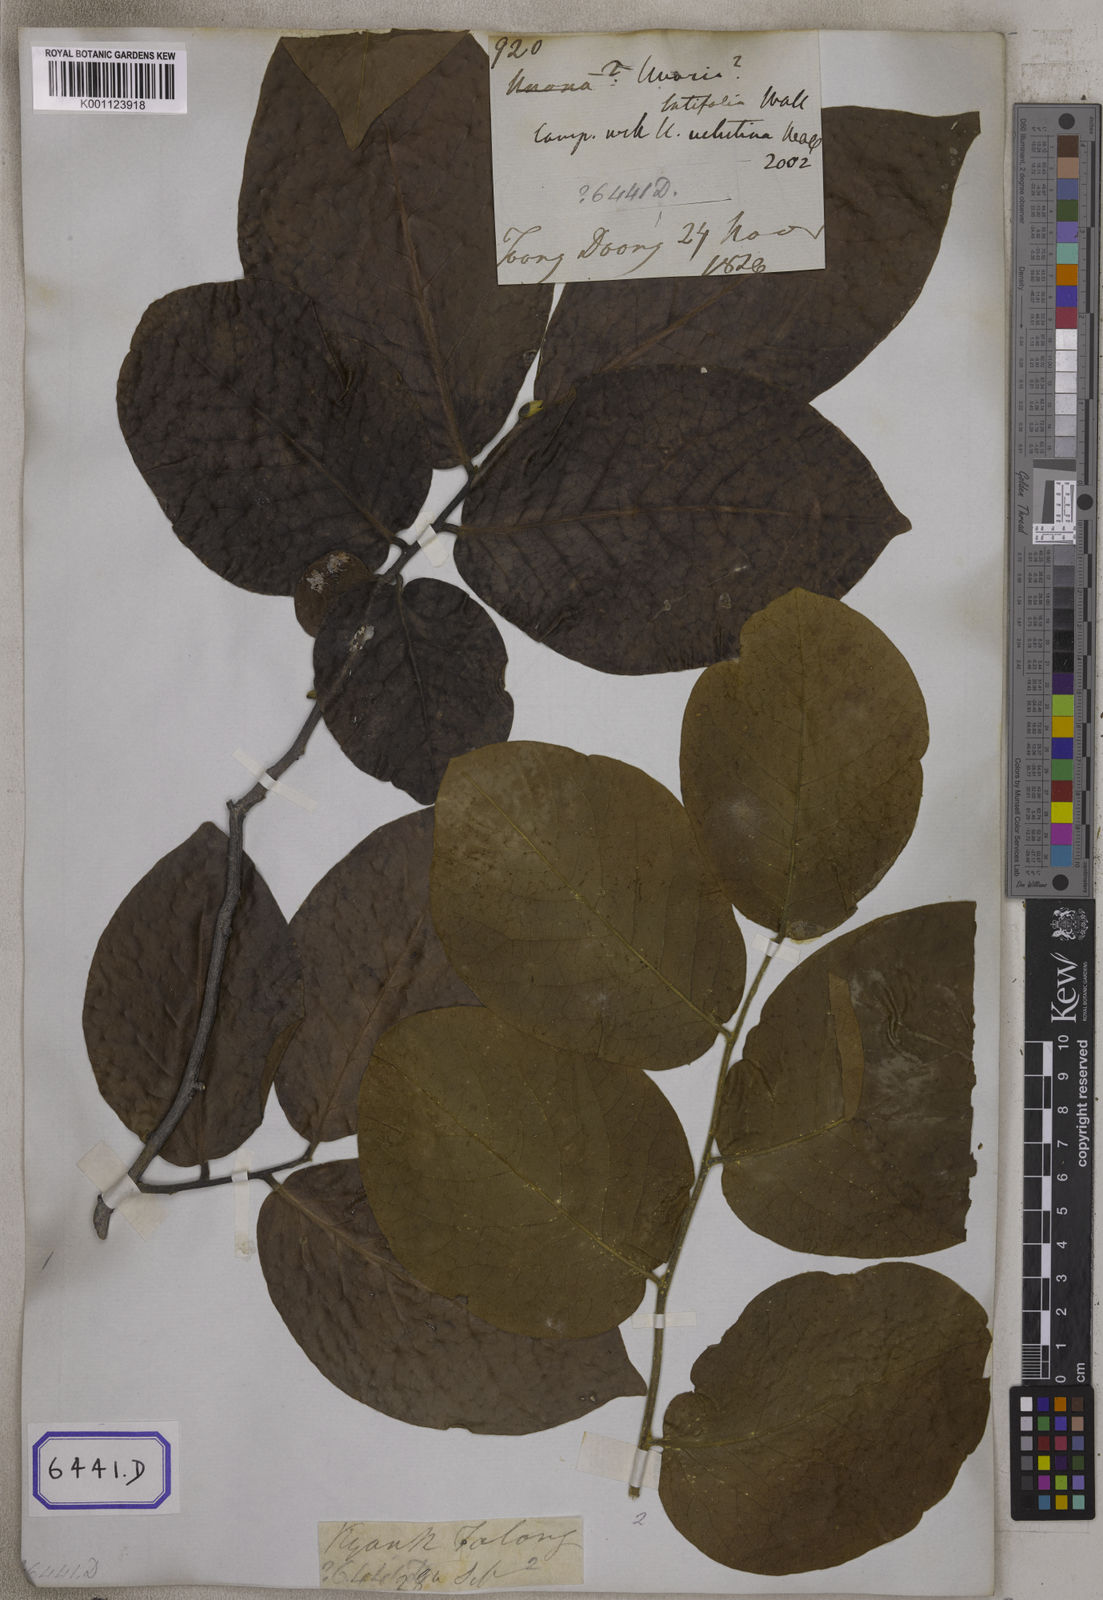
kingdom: Plantae
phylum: Tracheophyta
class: Magnoliopsida
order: Magnoliales
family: Annonaceae
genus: Miliusa
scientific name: Miliusa velutina
